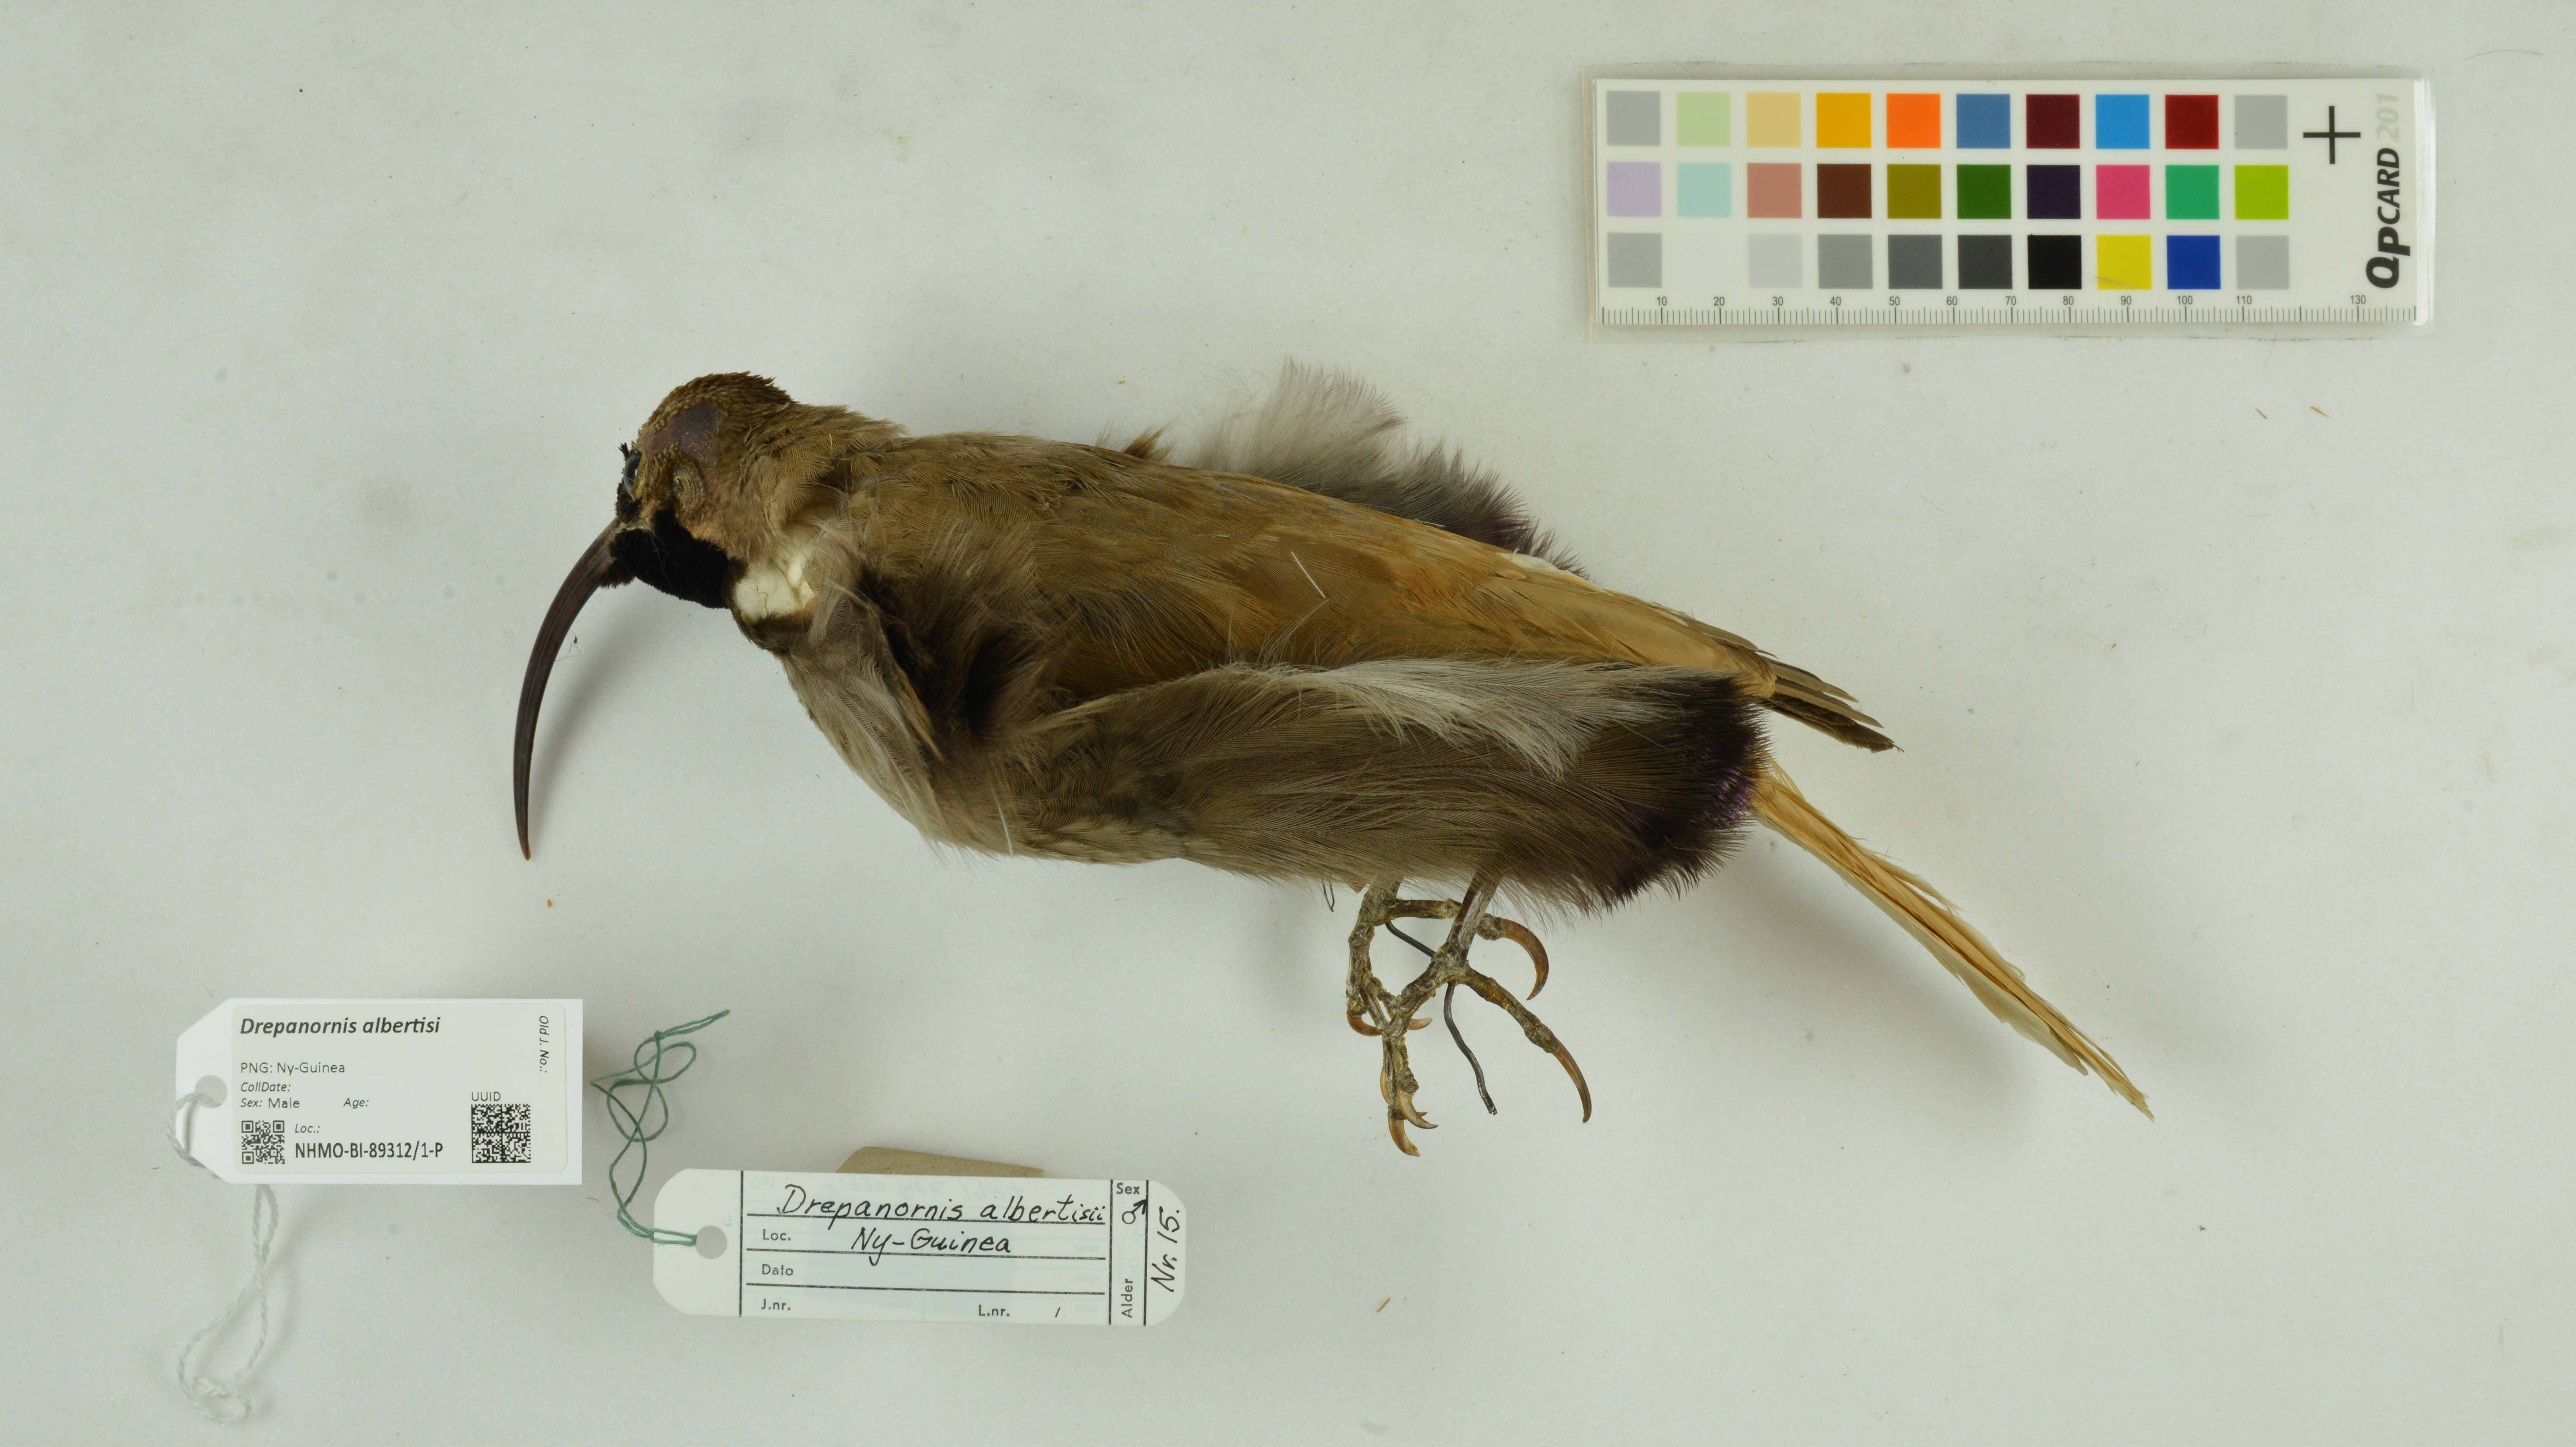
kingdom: Animalia
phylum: Chordata
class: Aves
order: Passeriformes
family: Paradisaeidae
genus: Drepanornis
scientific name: Drepanornis albertisi
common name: Black-billed sicklebill
